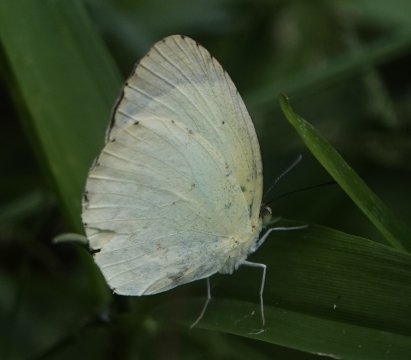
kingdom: Animalia
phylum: Arthropoda
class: Insecta
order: Lepidoptera
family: Pieridae
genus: Pyrisitia
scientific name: Pyrisitia nise
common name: Mimosa Yellow
